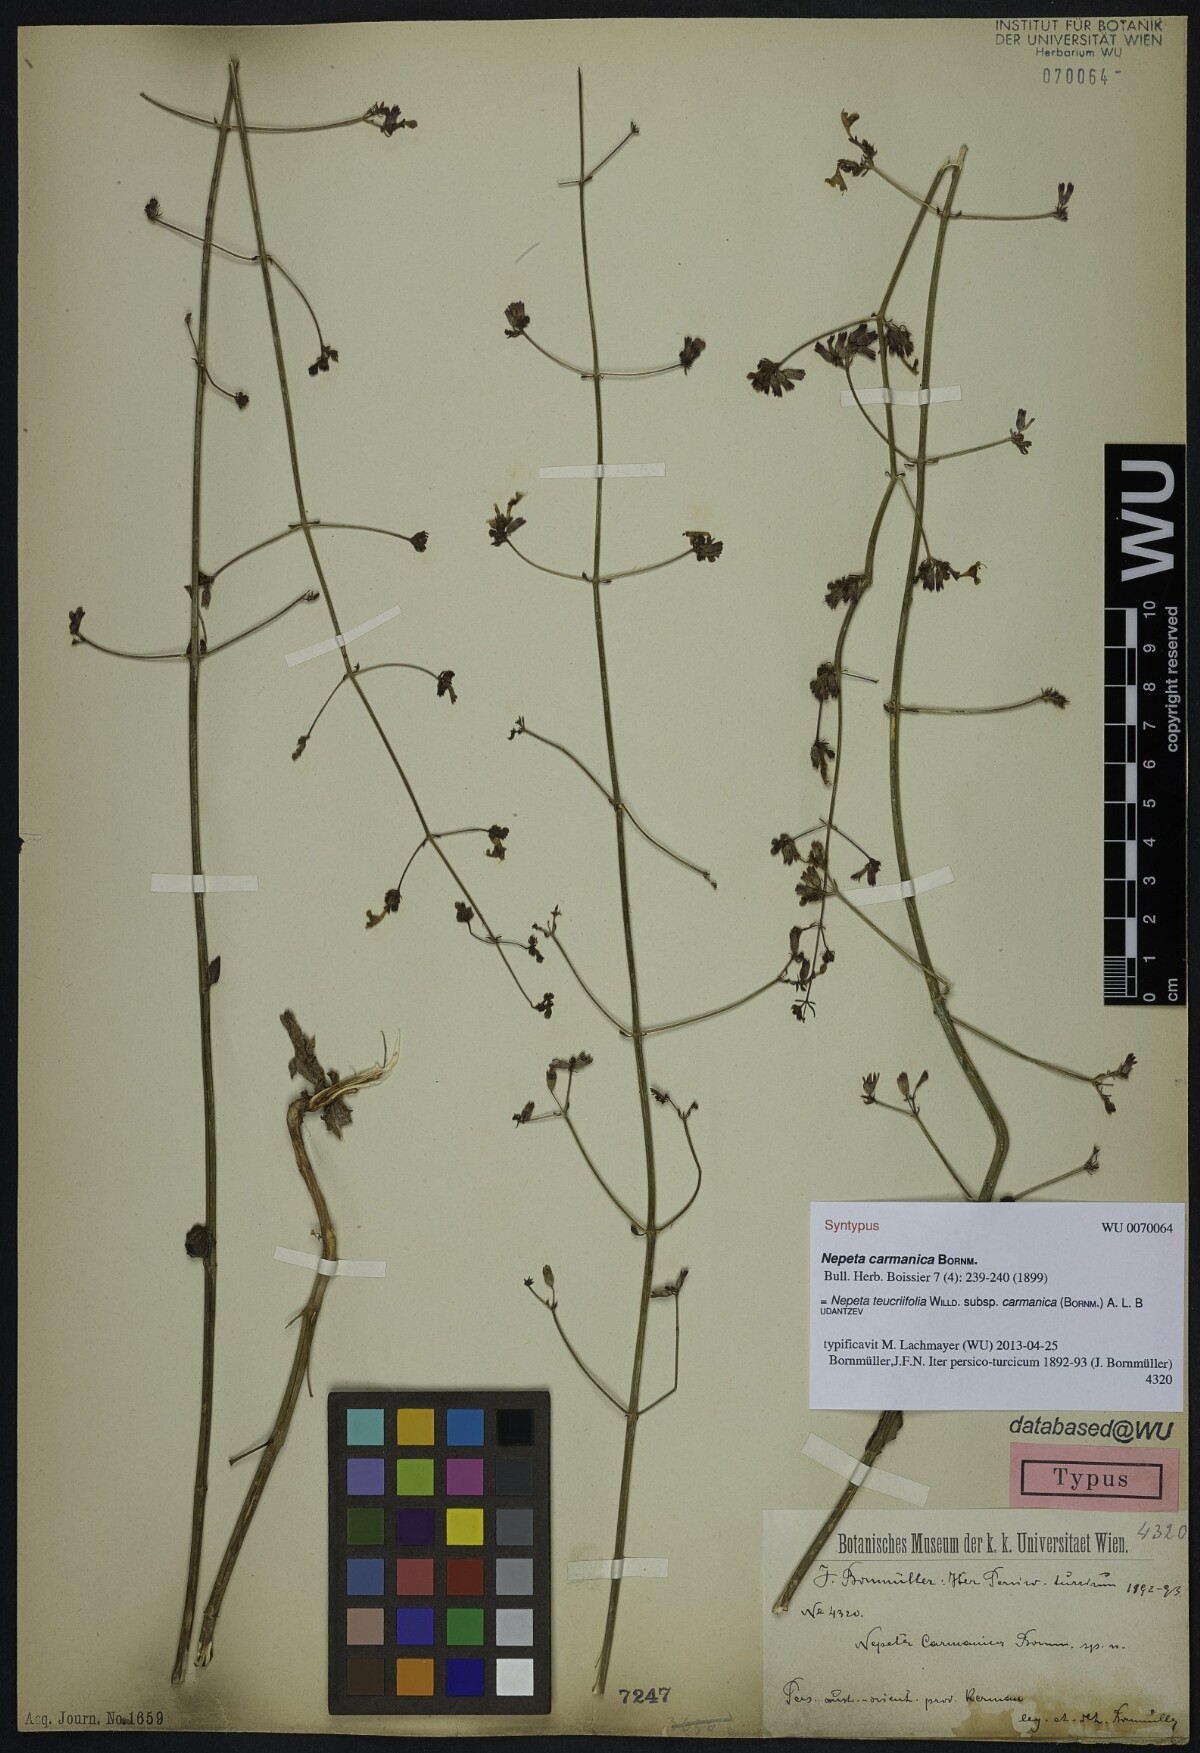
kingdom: Plantae
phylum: Tracheophyta
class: Magnoliopsida
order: Lamiales
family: Lamiaceae
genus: Nepeta
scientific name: Nepeta teucriifolia
